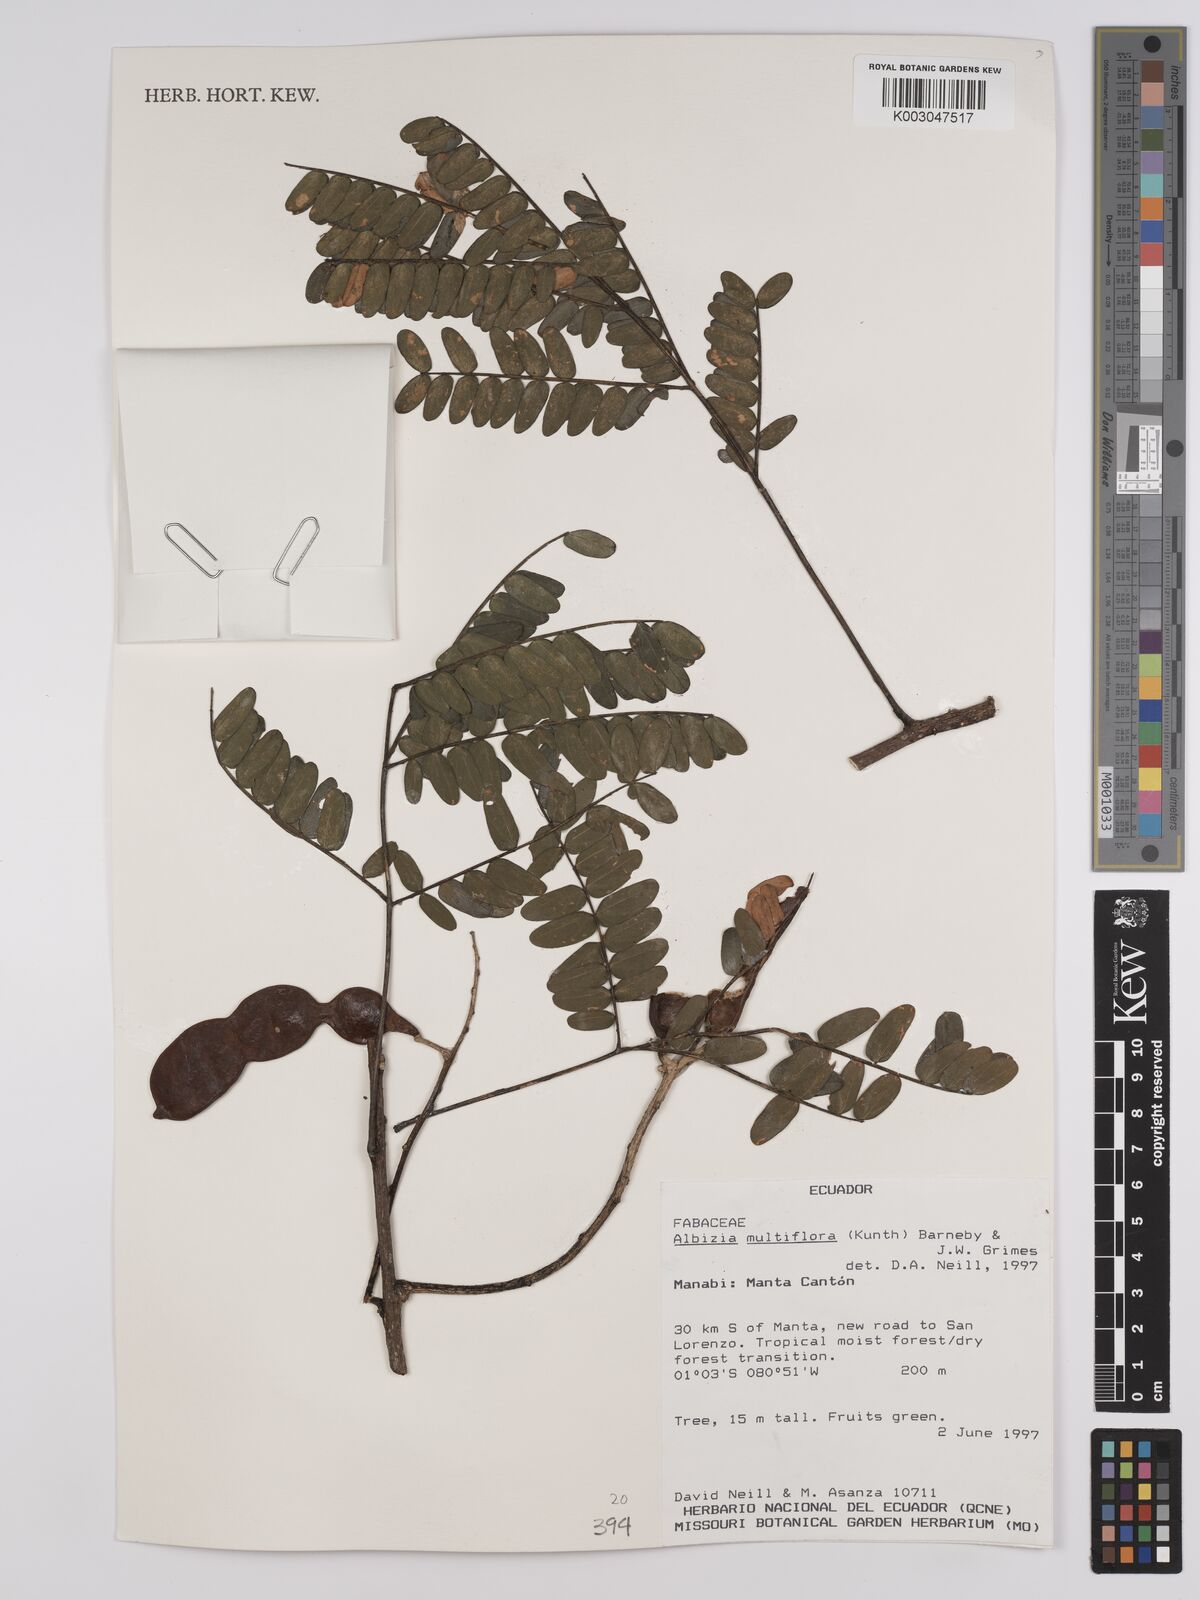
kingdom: Plantae
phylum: Tracheophyta
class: Magnoliopsida
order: Fabales
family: Fabaceae
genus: Albizia
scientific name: Albizia multiflora
